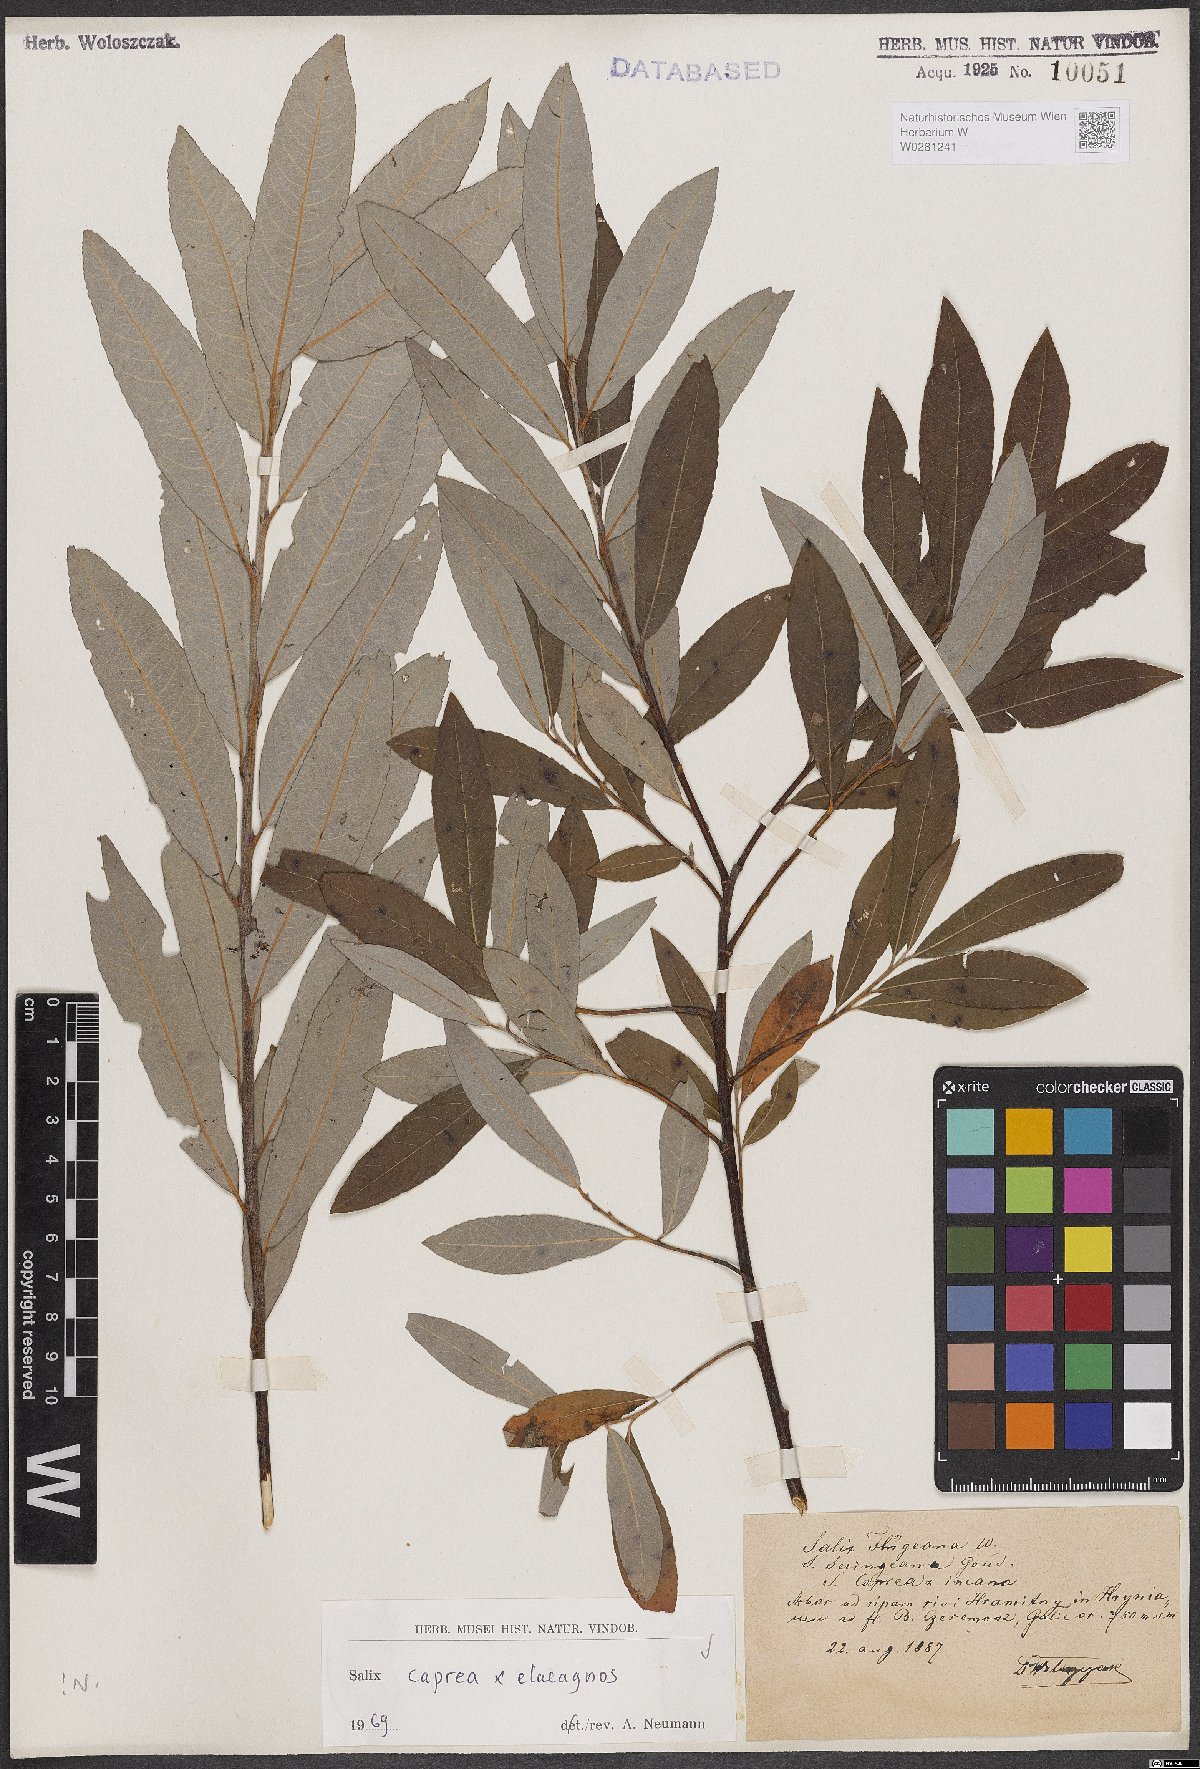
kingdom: Plantae
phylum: Tracheophyta
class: Magnoliopsida
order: Malpighiales
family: Salicaceae
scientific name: Salicaceae
